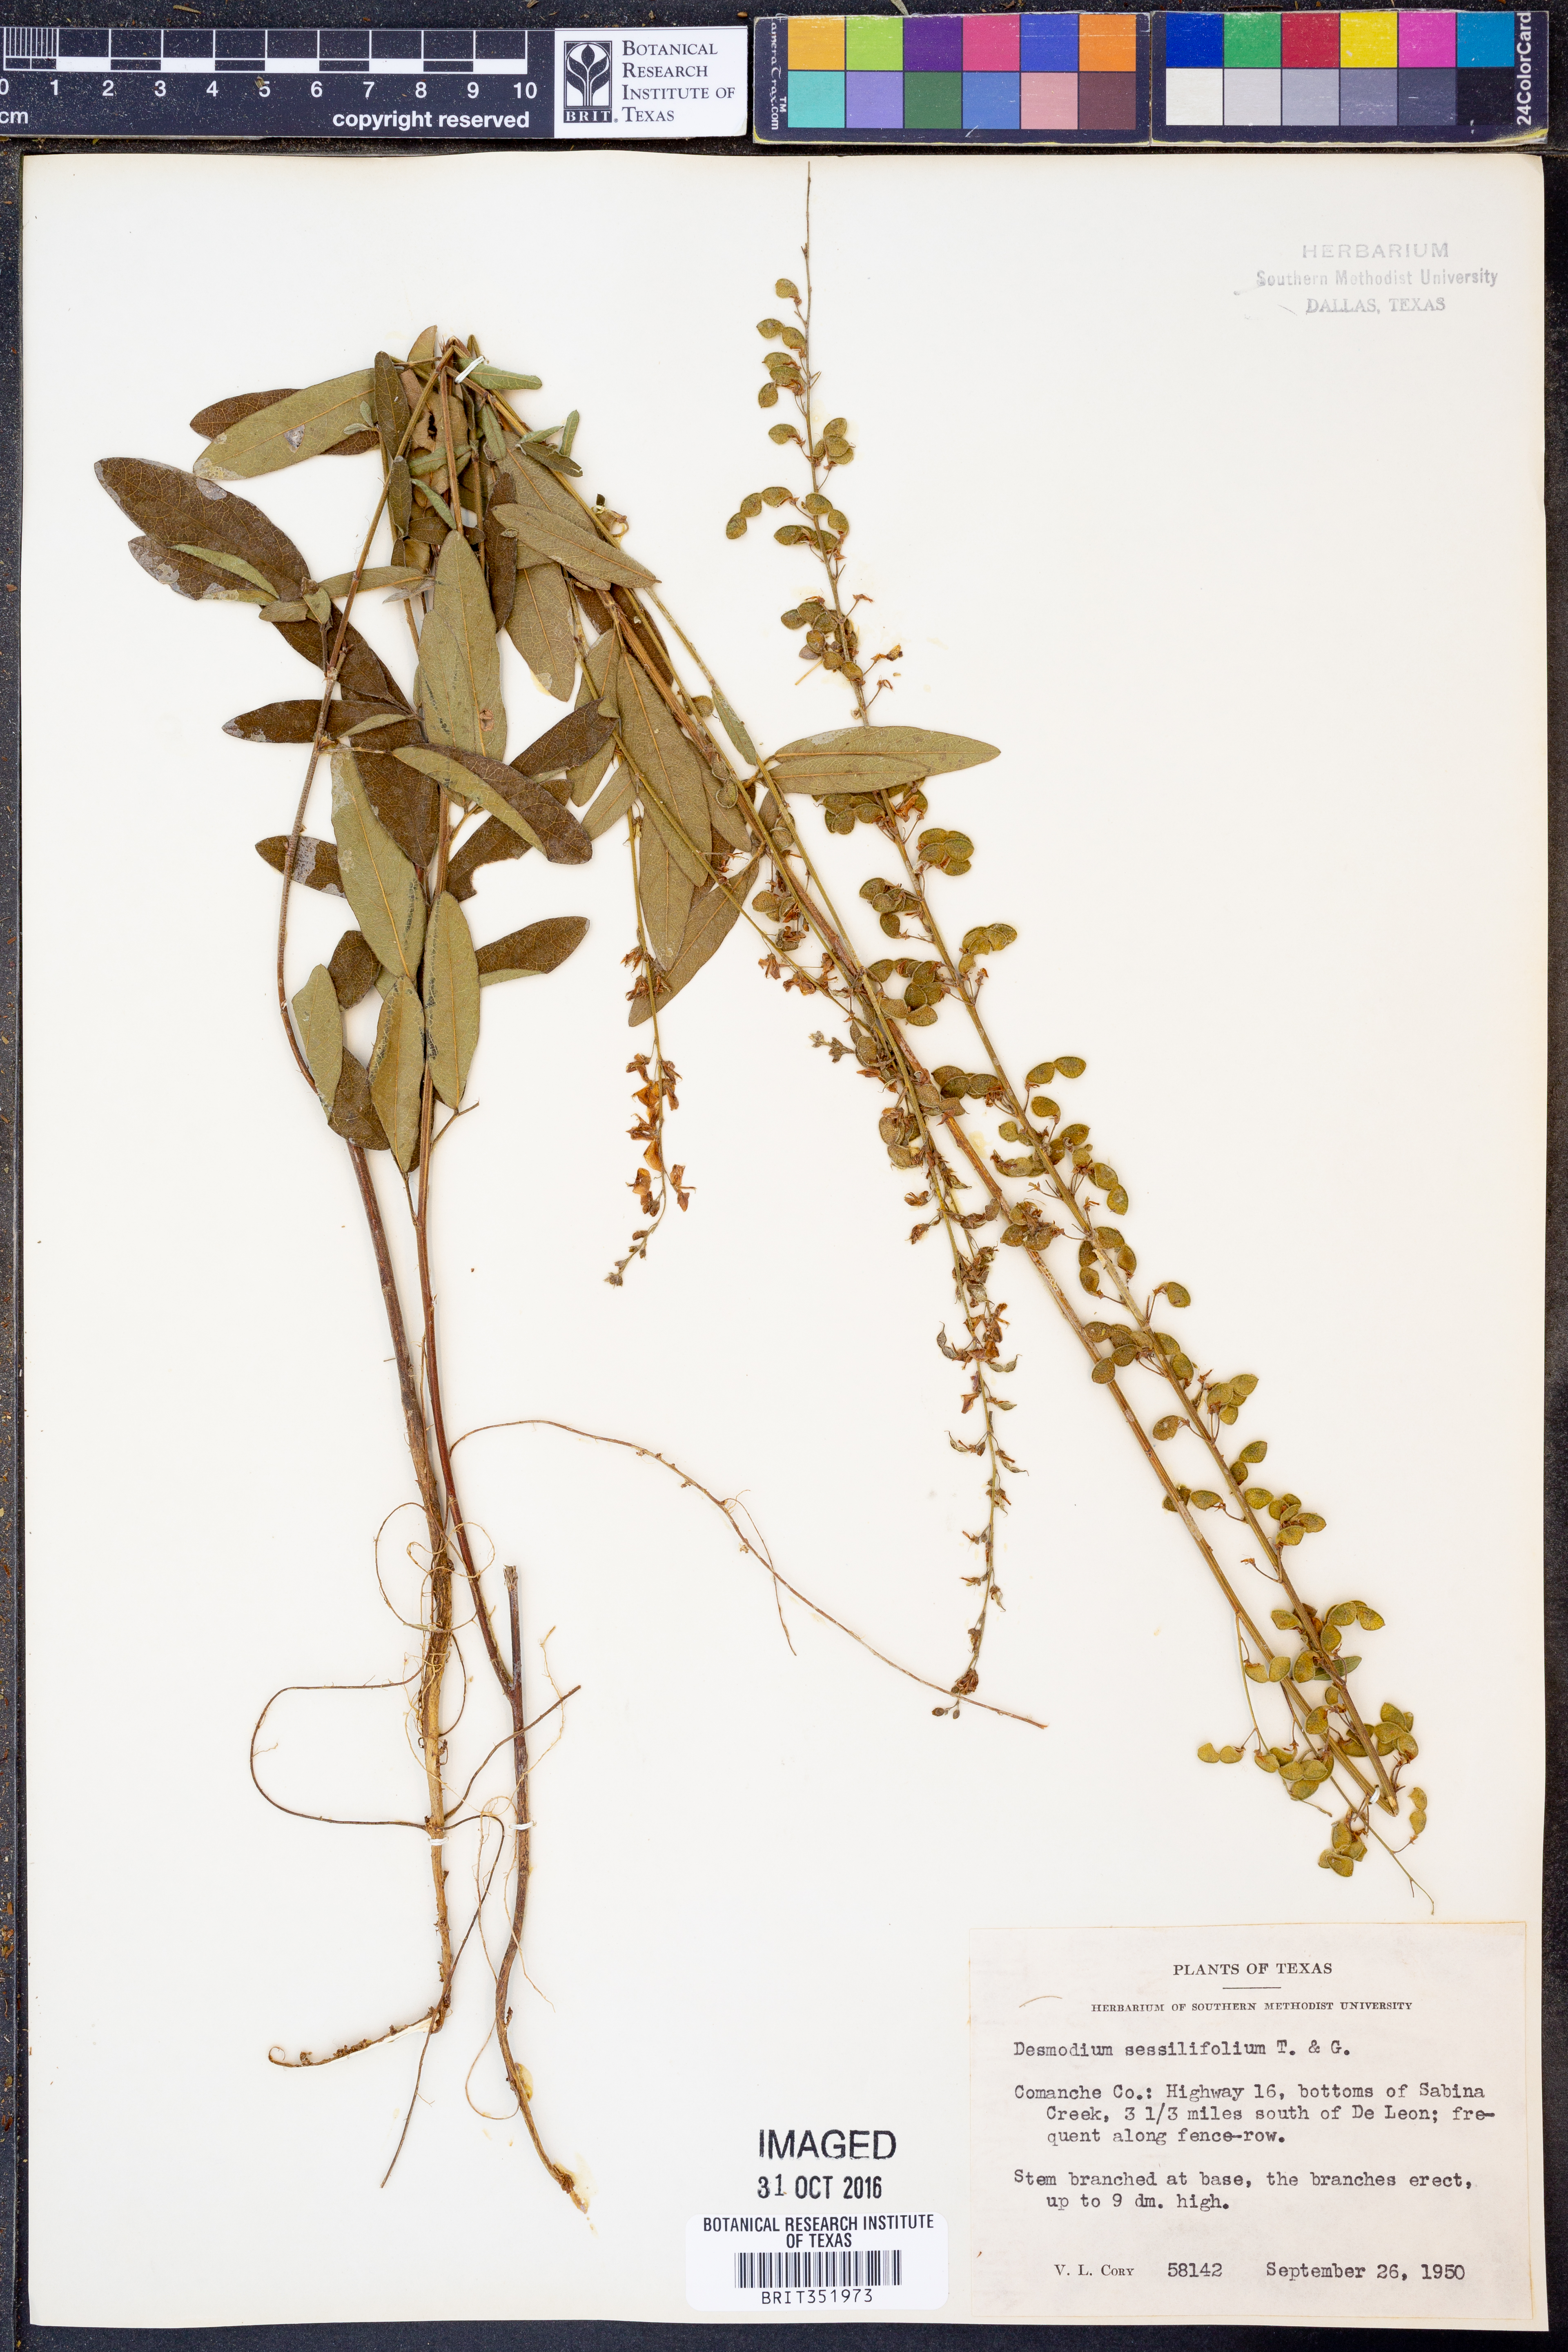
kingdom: Plantae
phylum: Tracheophyta
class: Magnoliopsida
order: Fabales
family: Fabaceae
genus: Desmodium
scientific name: Desmodium sessilifolium
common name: Sessile tick-clover
